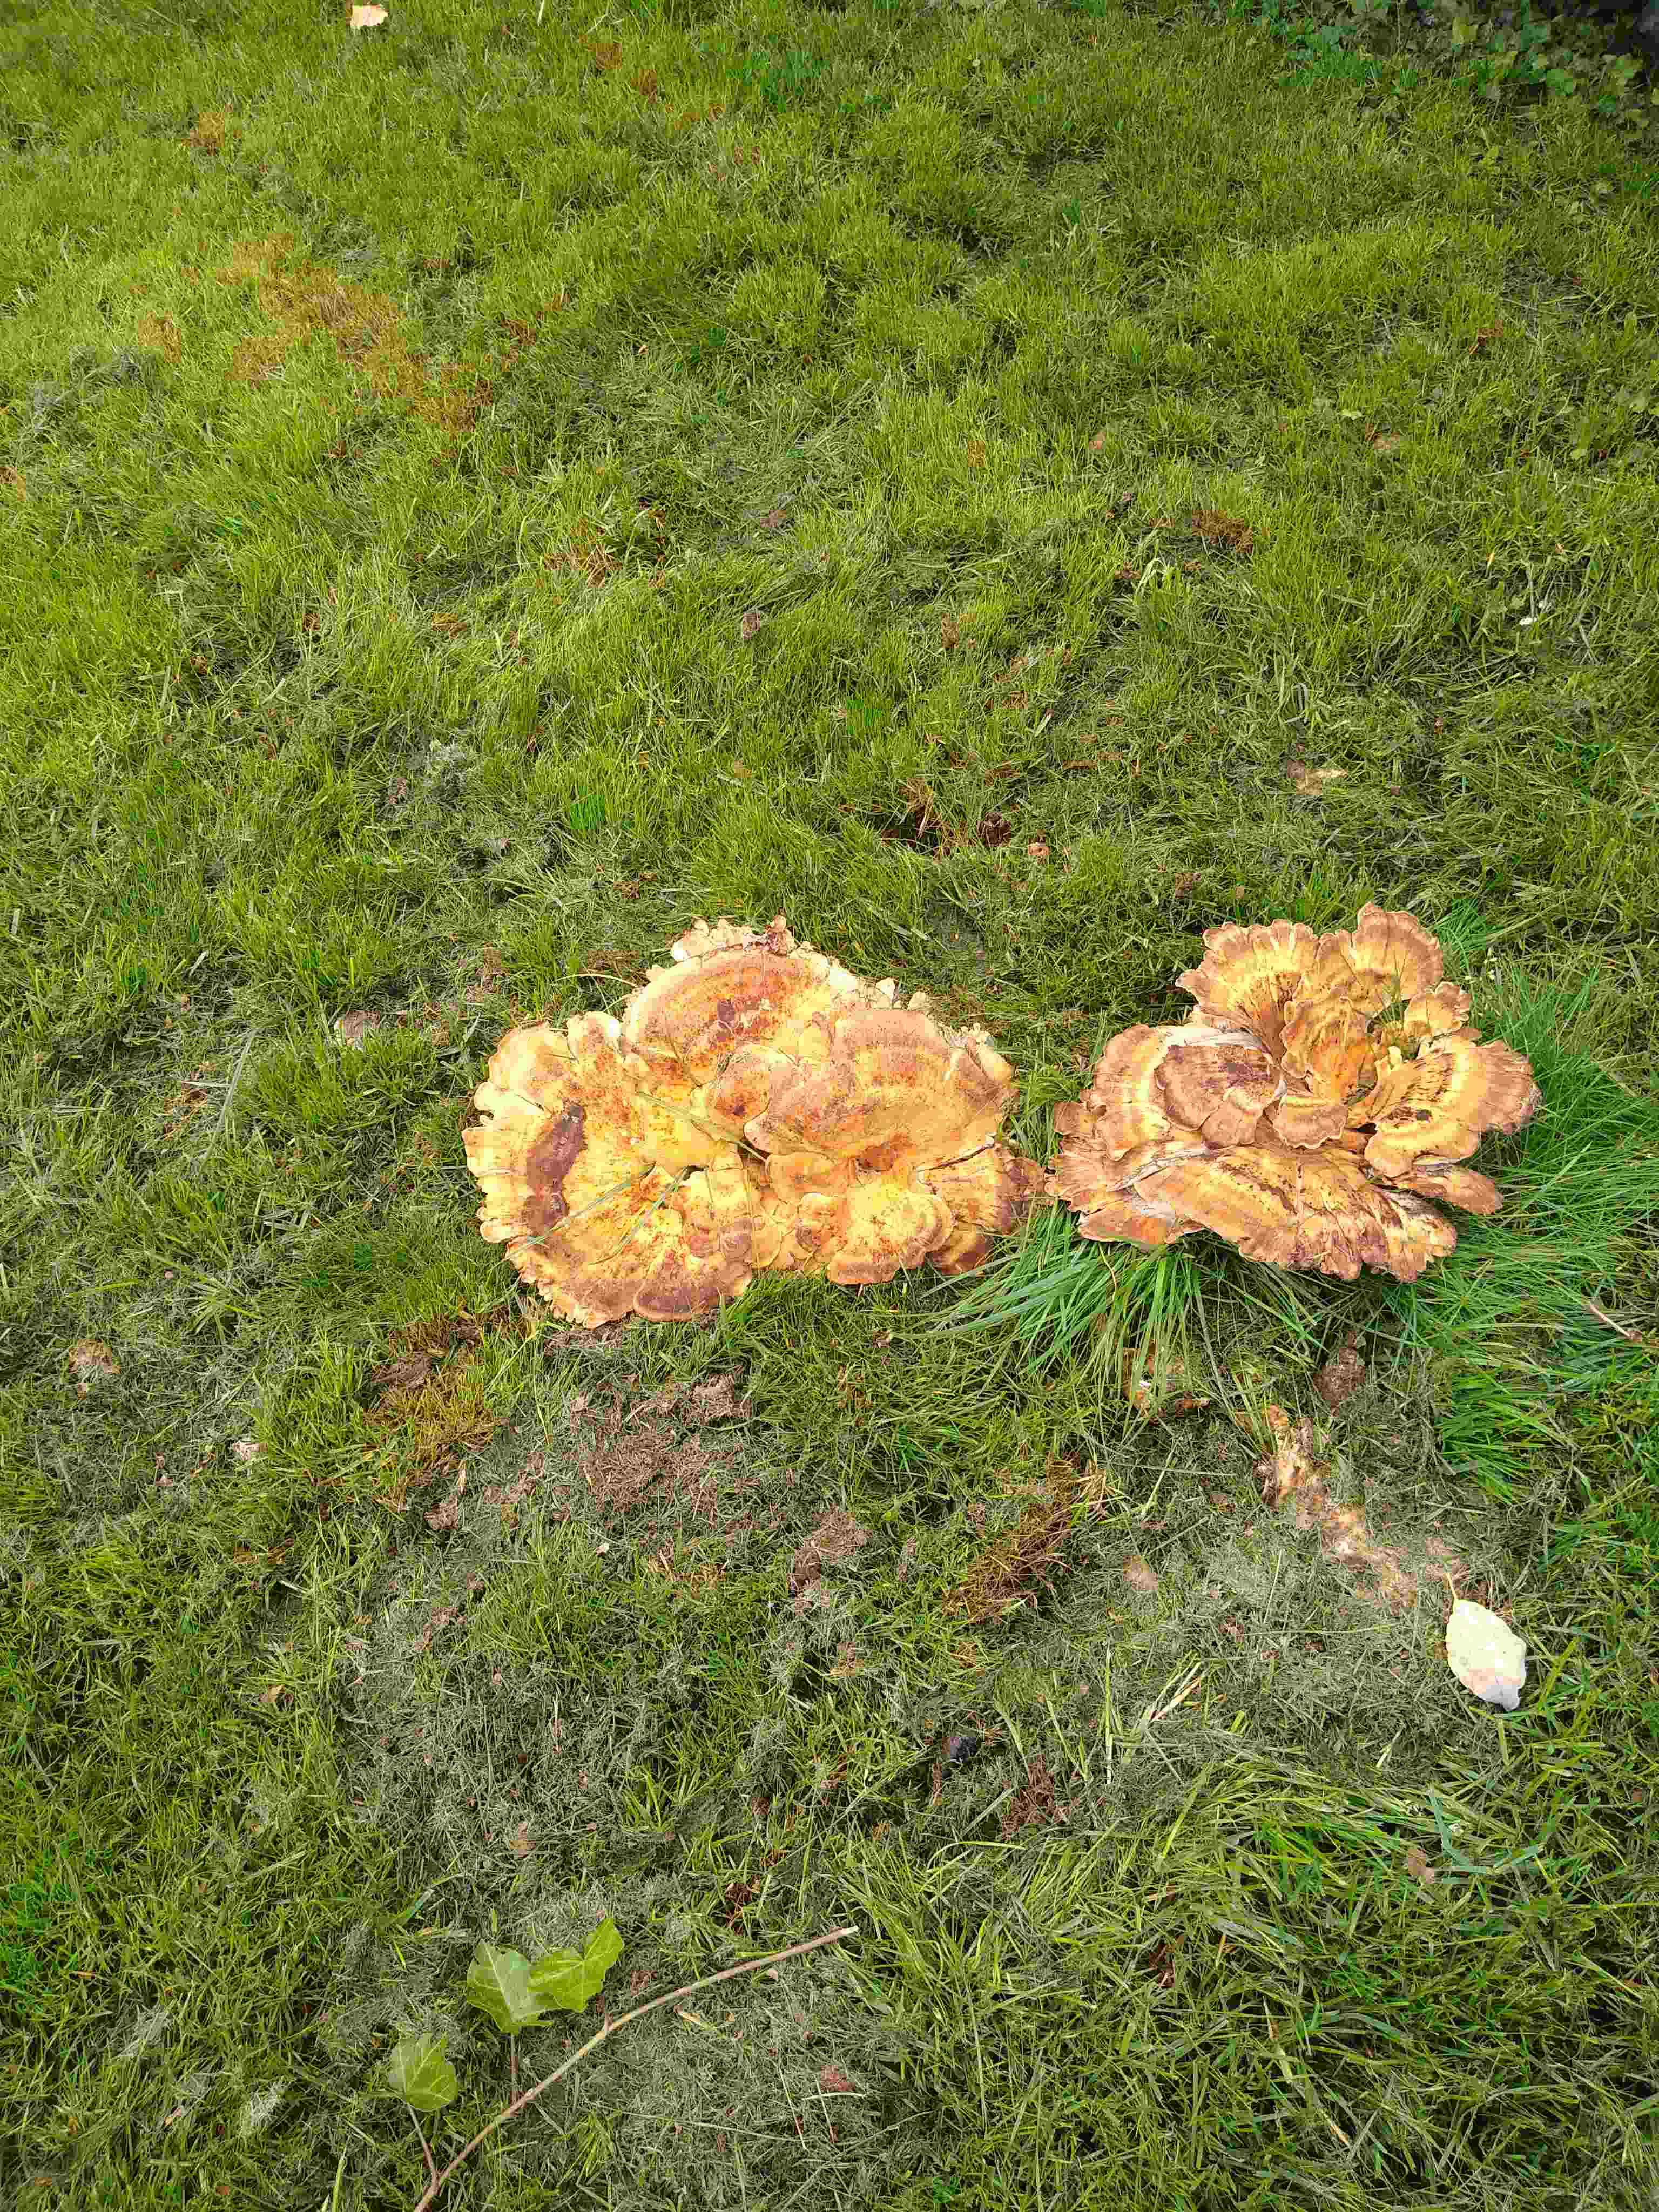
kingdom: Fungi
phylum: Basidiomycota
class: Agaricomycetes
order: Polyporales
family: Meripilaceae
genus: Meripilus
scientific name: Meripilus giganteus
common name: kæmpeporesvamp
